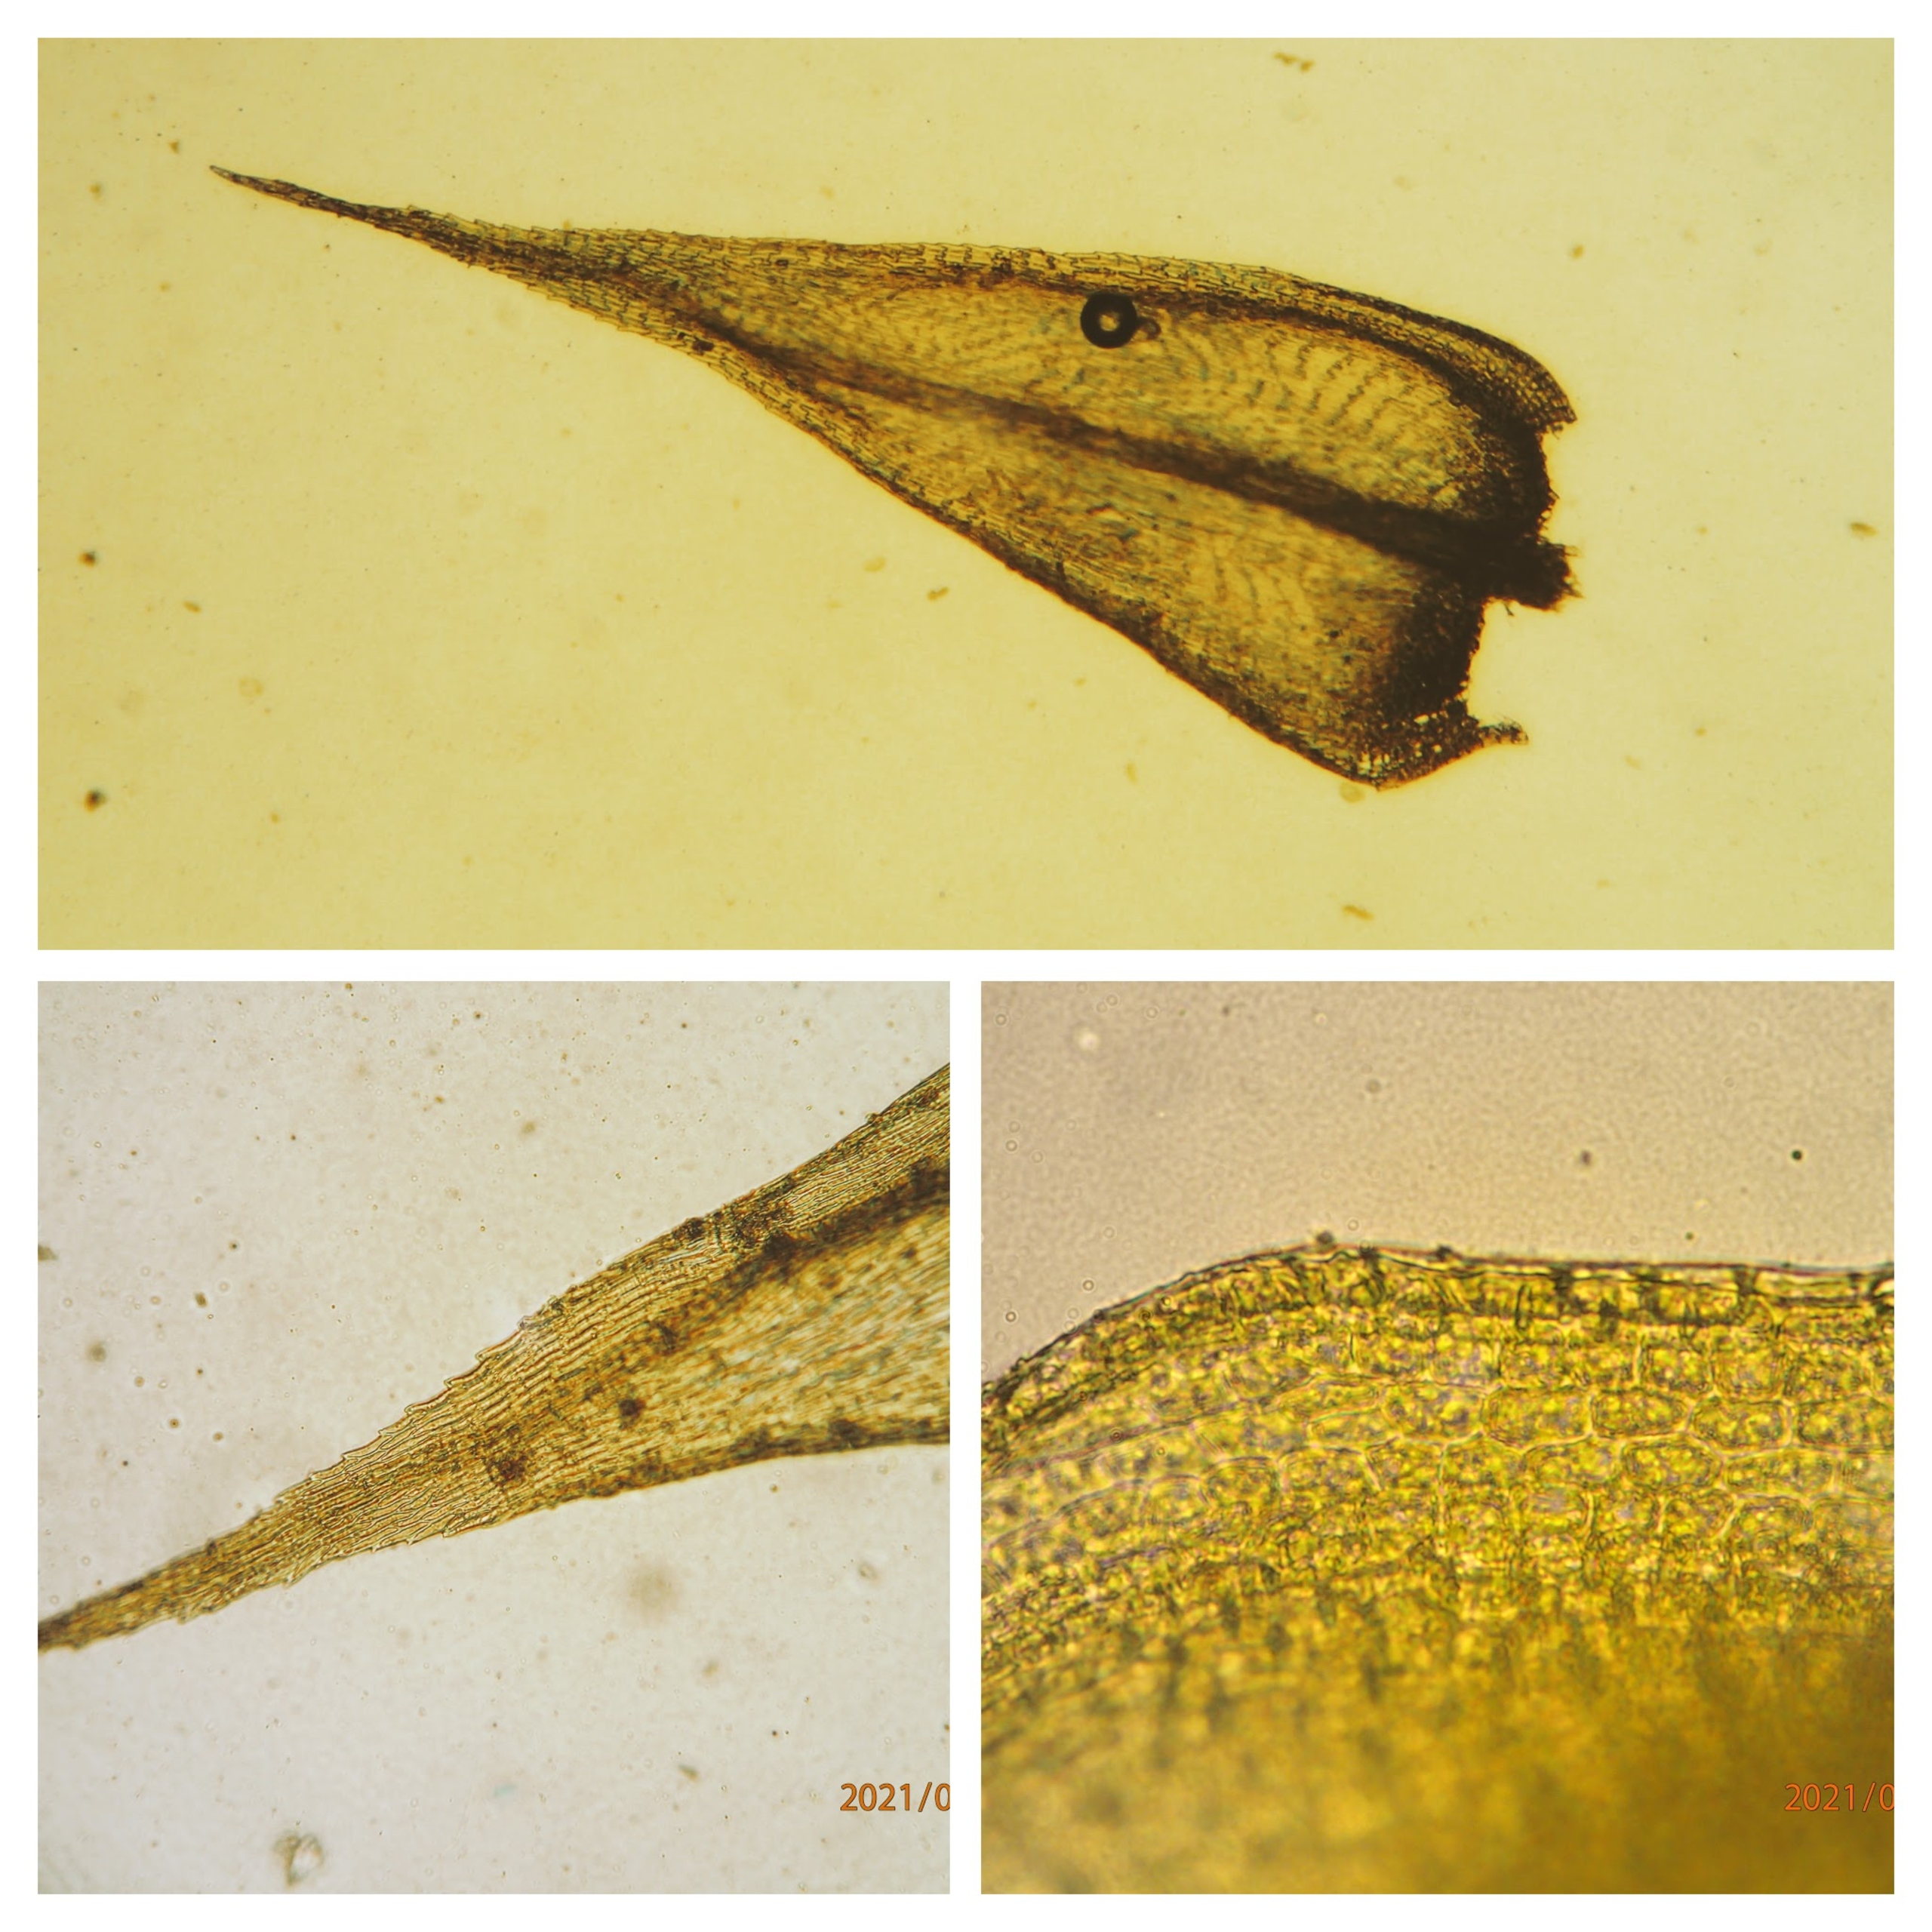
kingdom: Plantae
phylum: Bryophyta
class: Bryopsida
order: Hypnales
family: Brachytheciaceae
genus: Sciuro-hypnum
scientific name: Sciuro-hypnum populeum
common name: Park-kortkapsel
